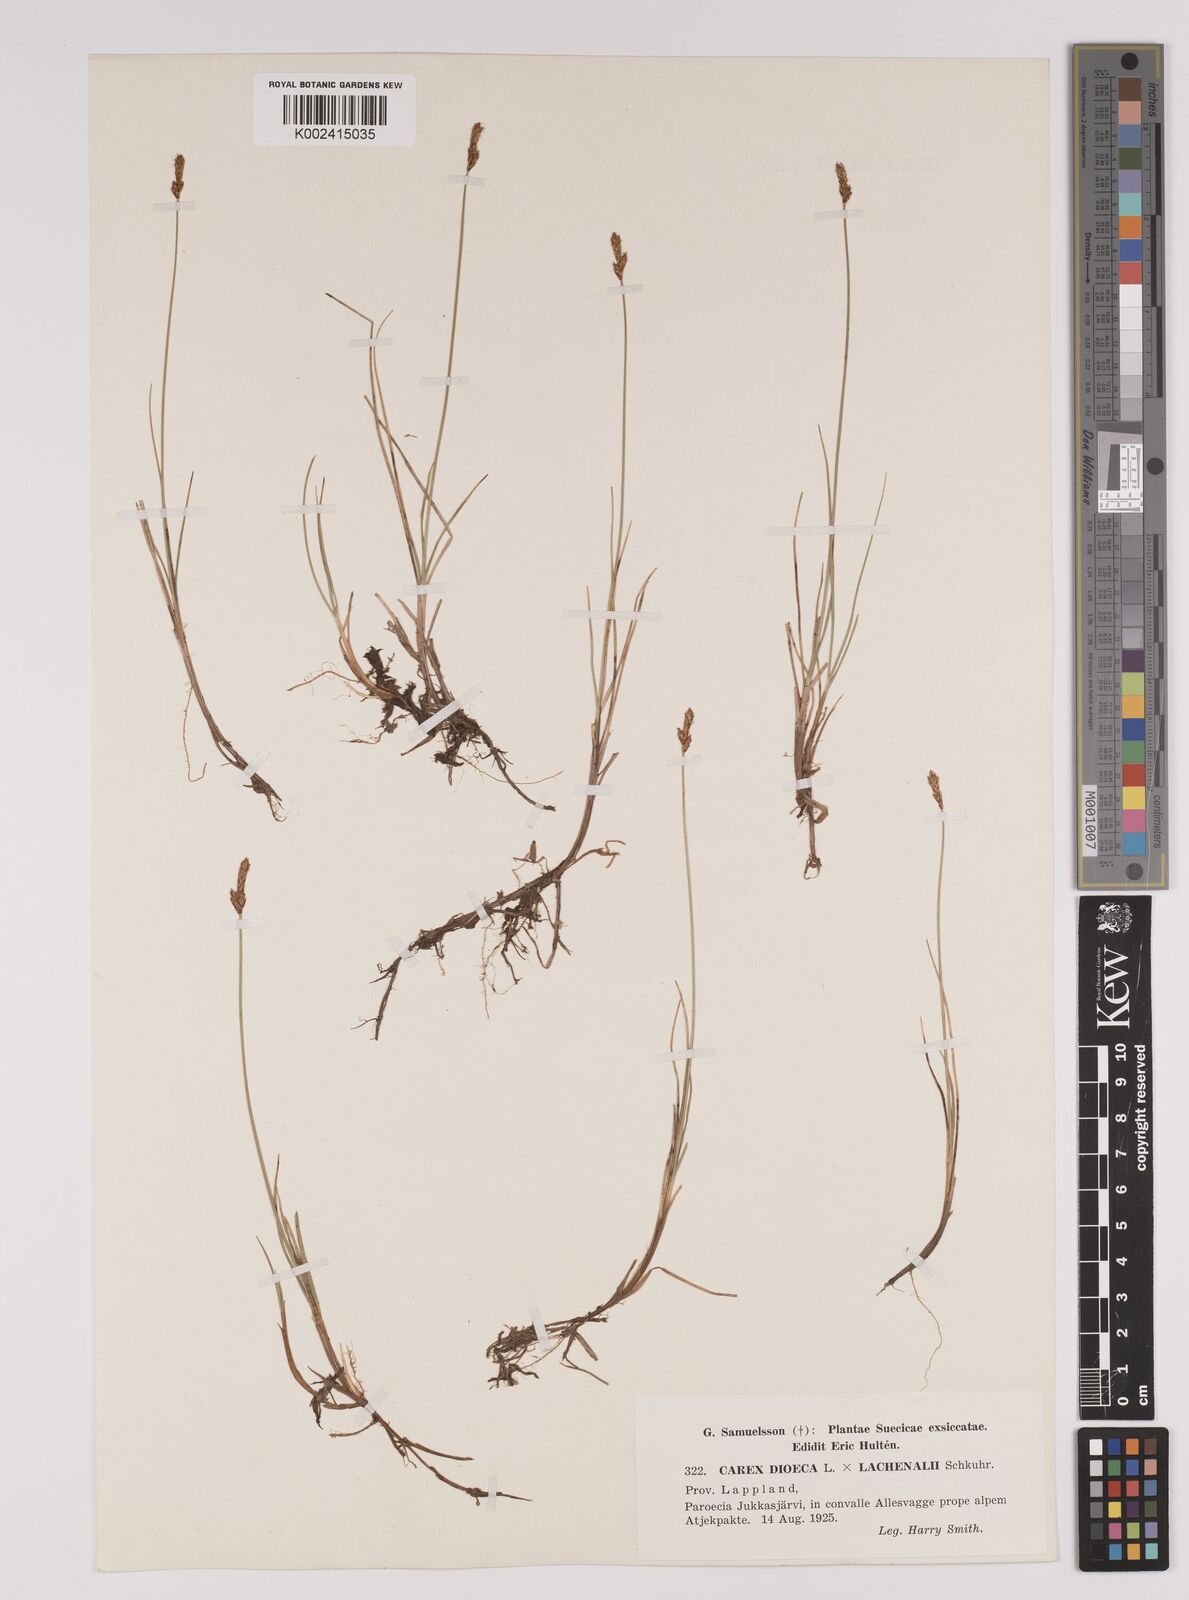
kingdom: Plantae
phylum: Tracheophyta
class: Liliopsida
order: Poales
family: Cyperaceae
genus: Carex
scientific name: Carex dioica
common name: Dioecious sedge
